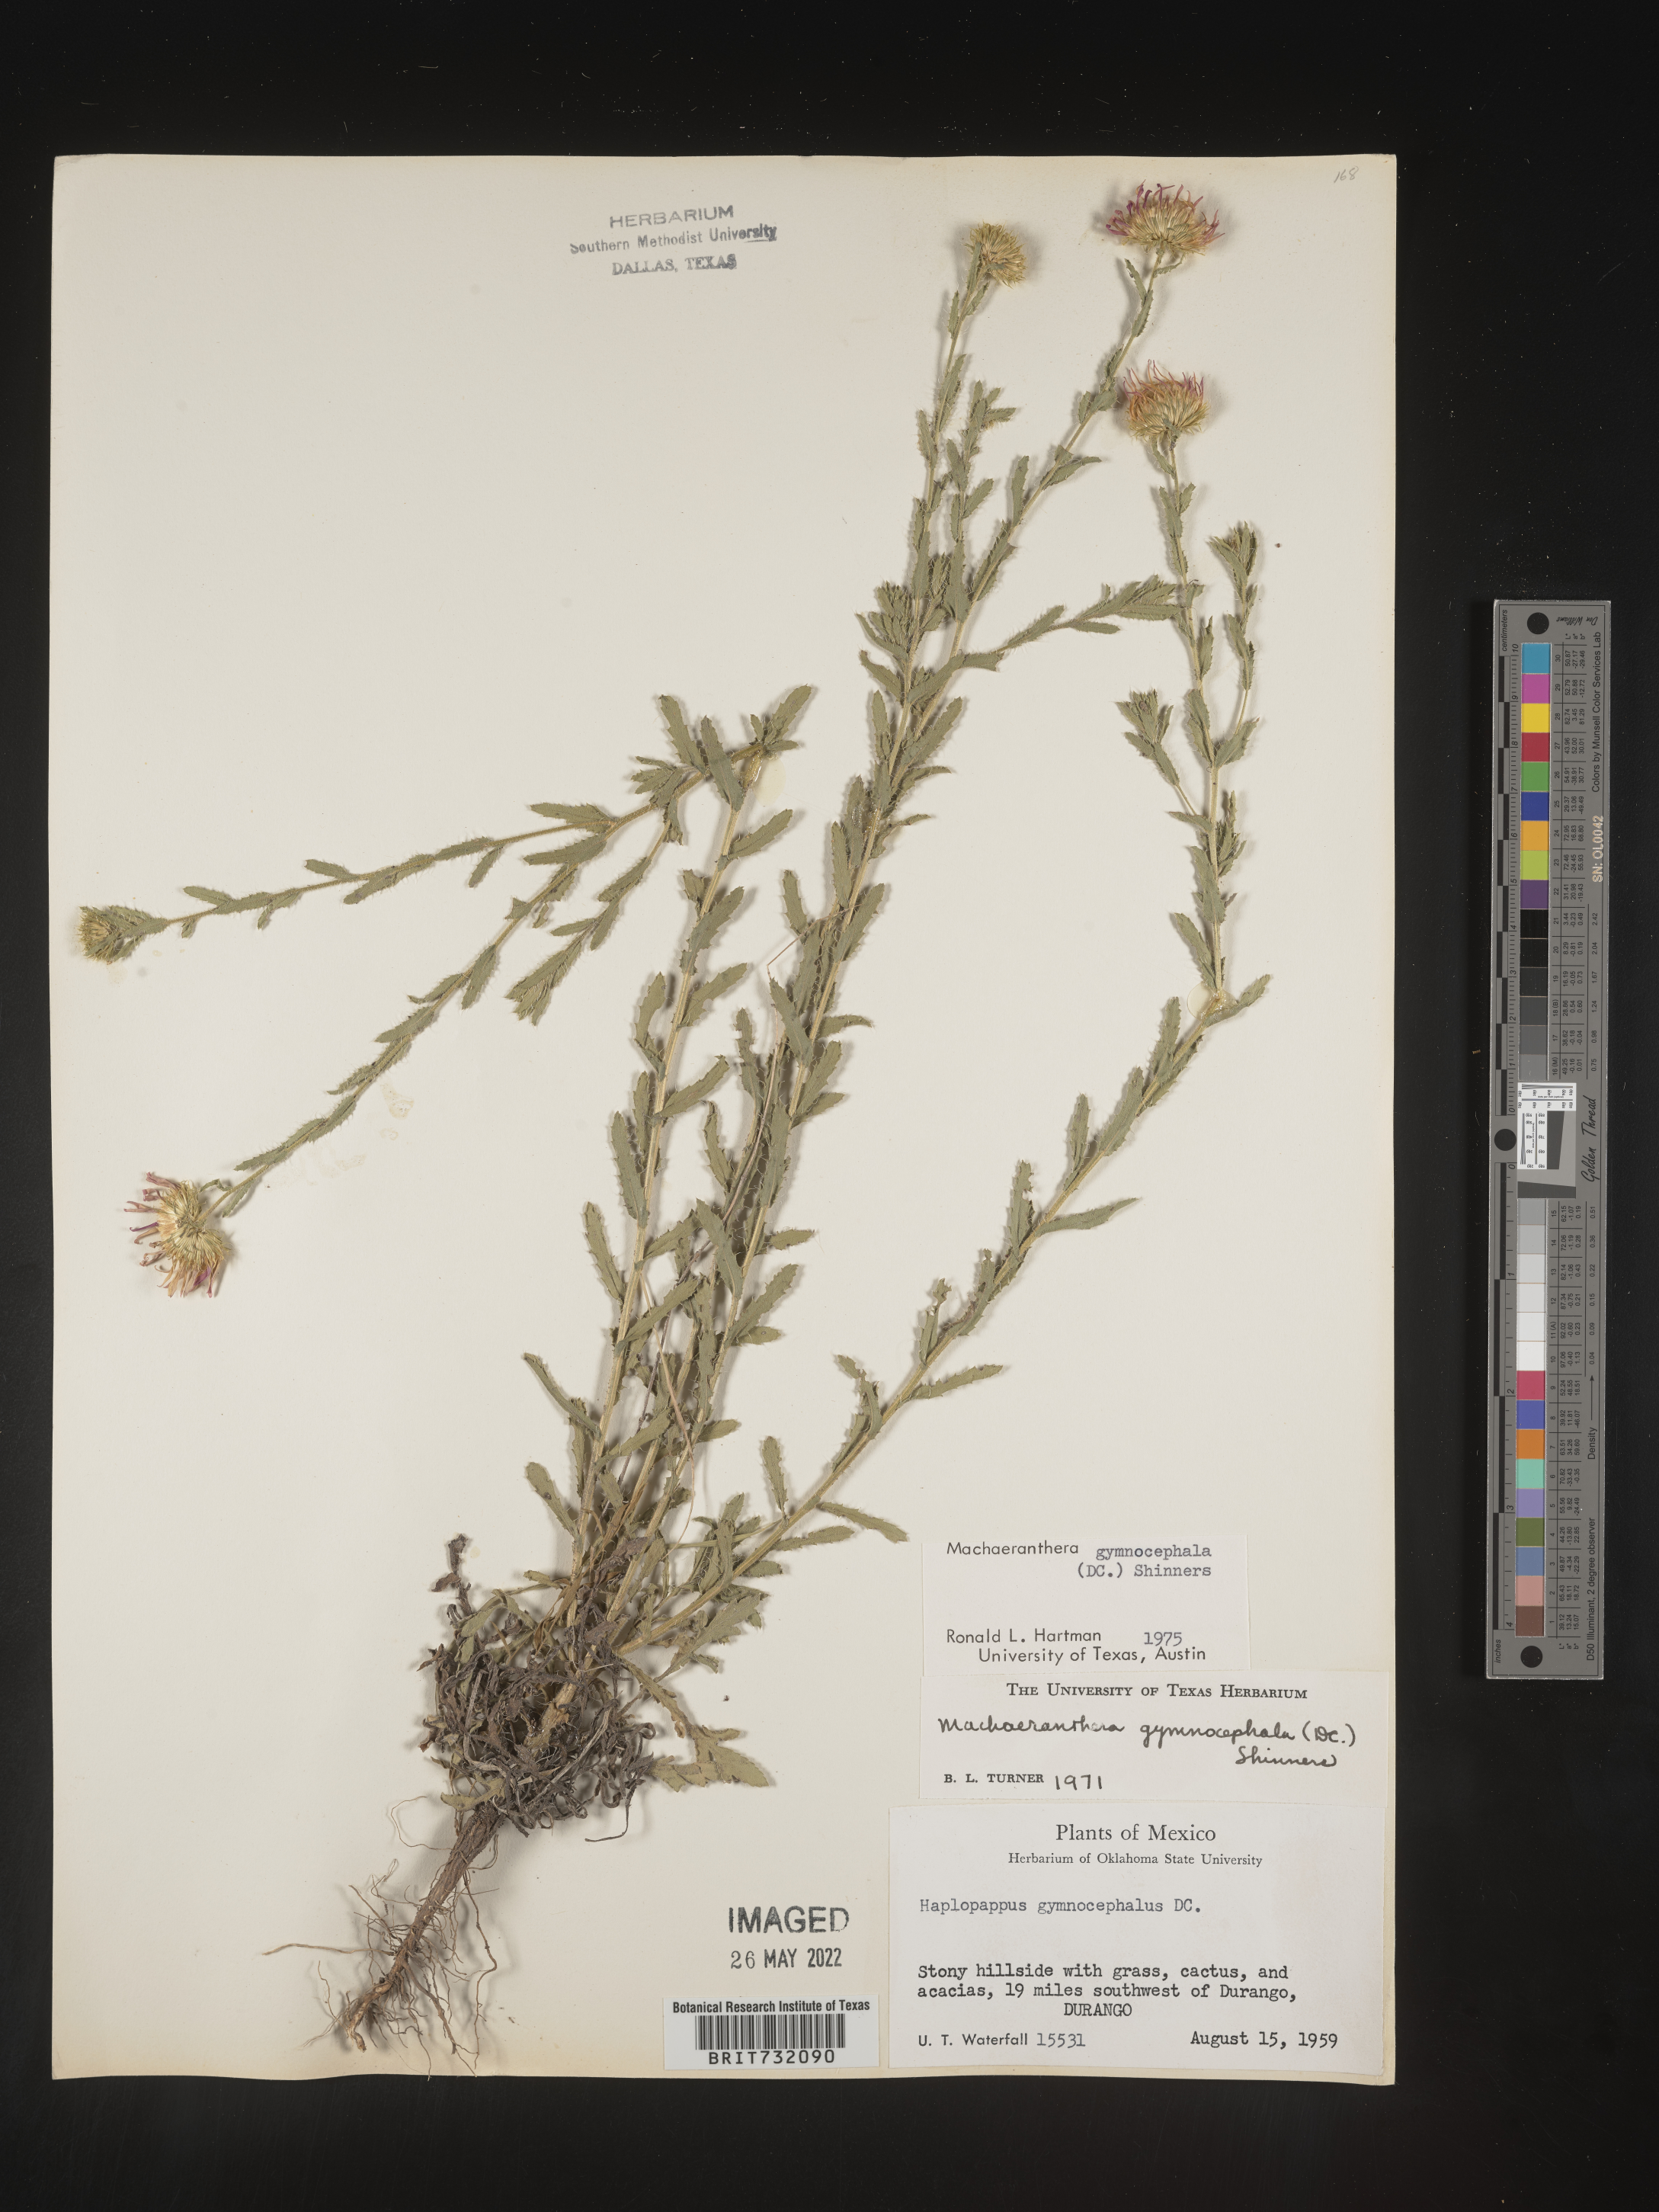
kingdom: Plantae
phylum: Tracheophyta
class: Magnoliopsida
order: Asterales
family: Asteraceae
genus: Xanthisma
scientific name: Xanthisma blephariphyllum
